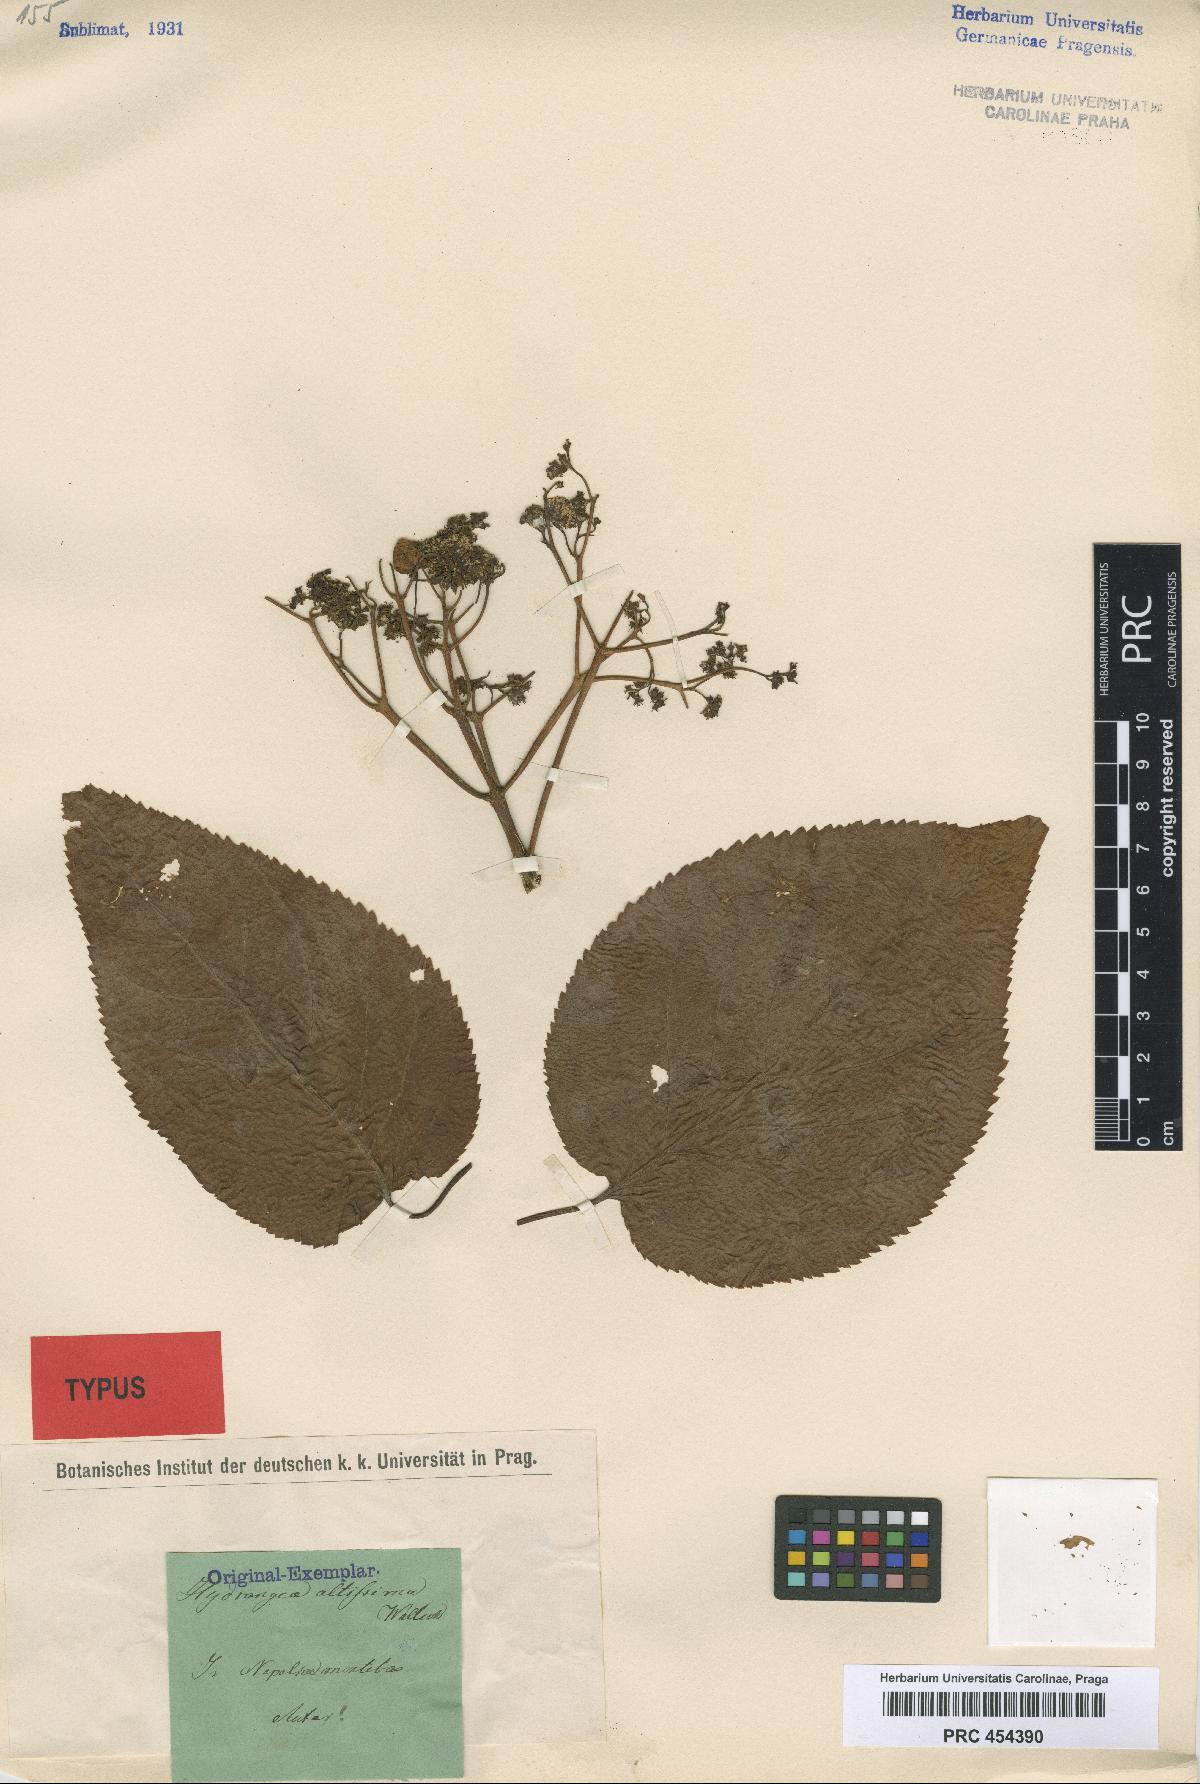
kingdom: Plantae
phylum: Tracheophyta
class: Magnoliopsida
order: Cornales
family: Hydrangeaceae
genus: Hydrangea
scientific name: Hydrangea anomala
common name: Japanese climbing-hydrangea
